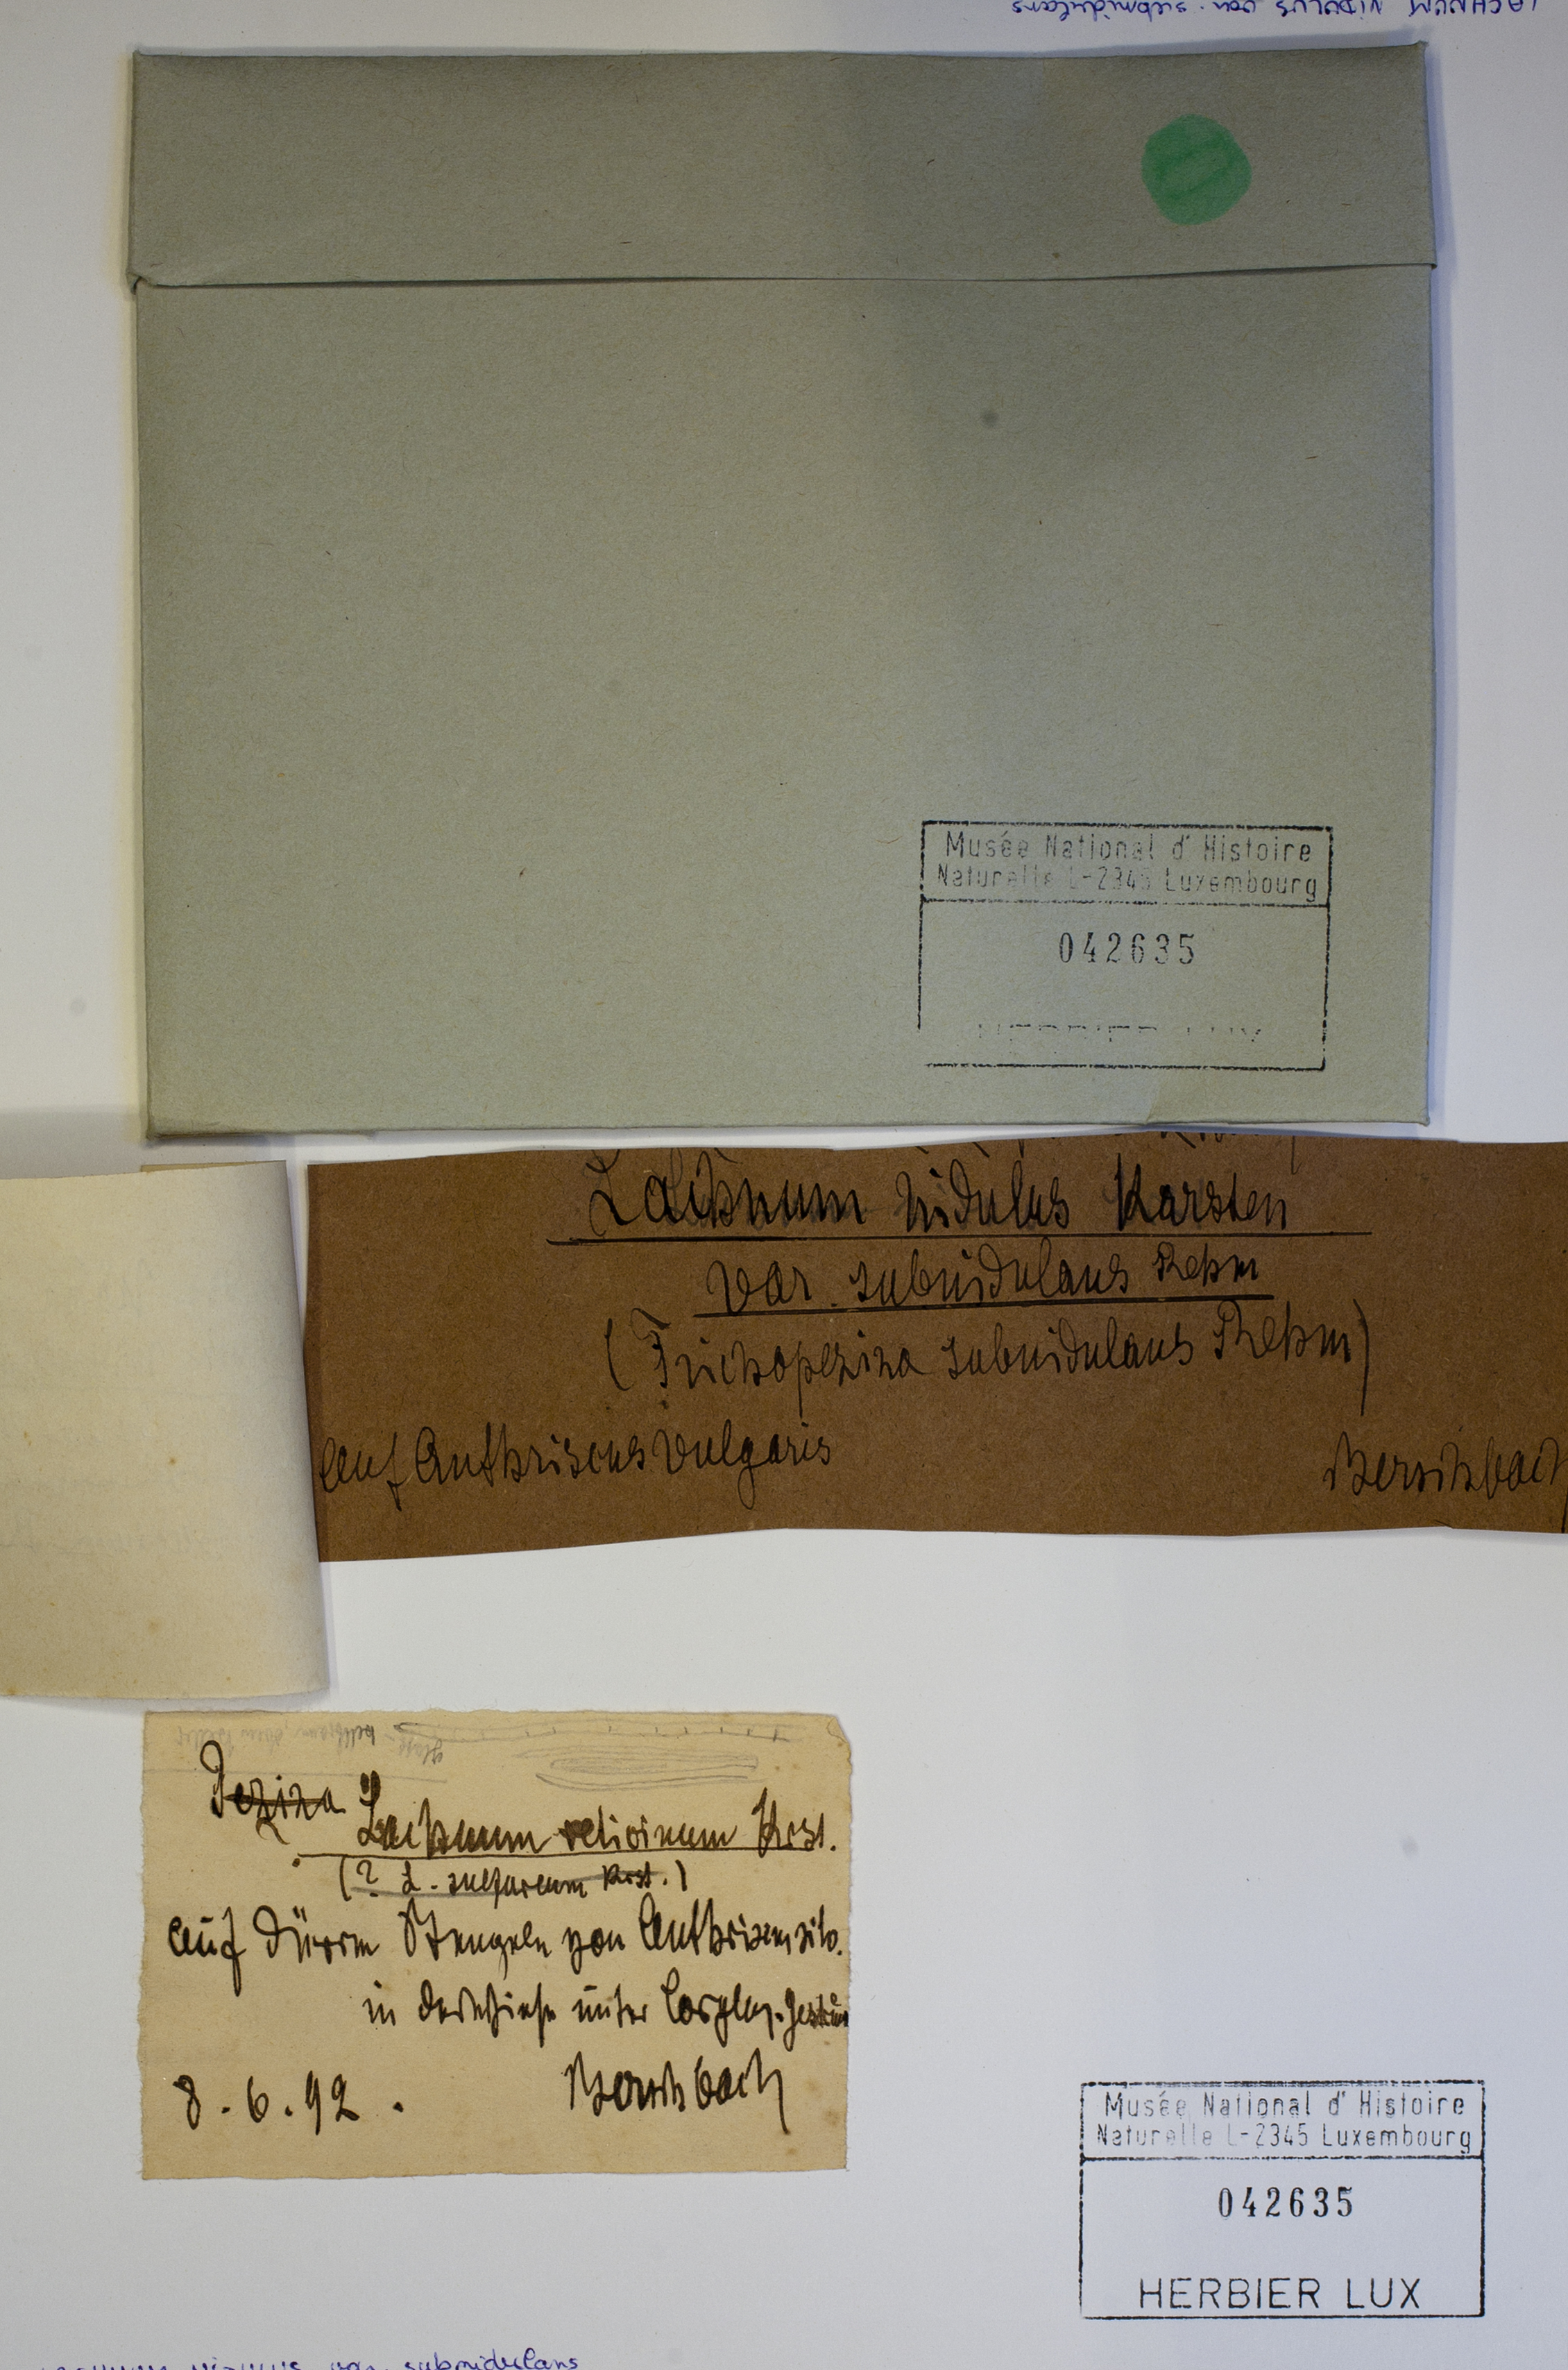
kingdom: Fungi
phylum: Basidiomycota
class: Agaricomycetes
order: Agaricales
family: Niaceae
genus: Lachnella
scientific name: Lachnella subnidulans
